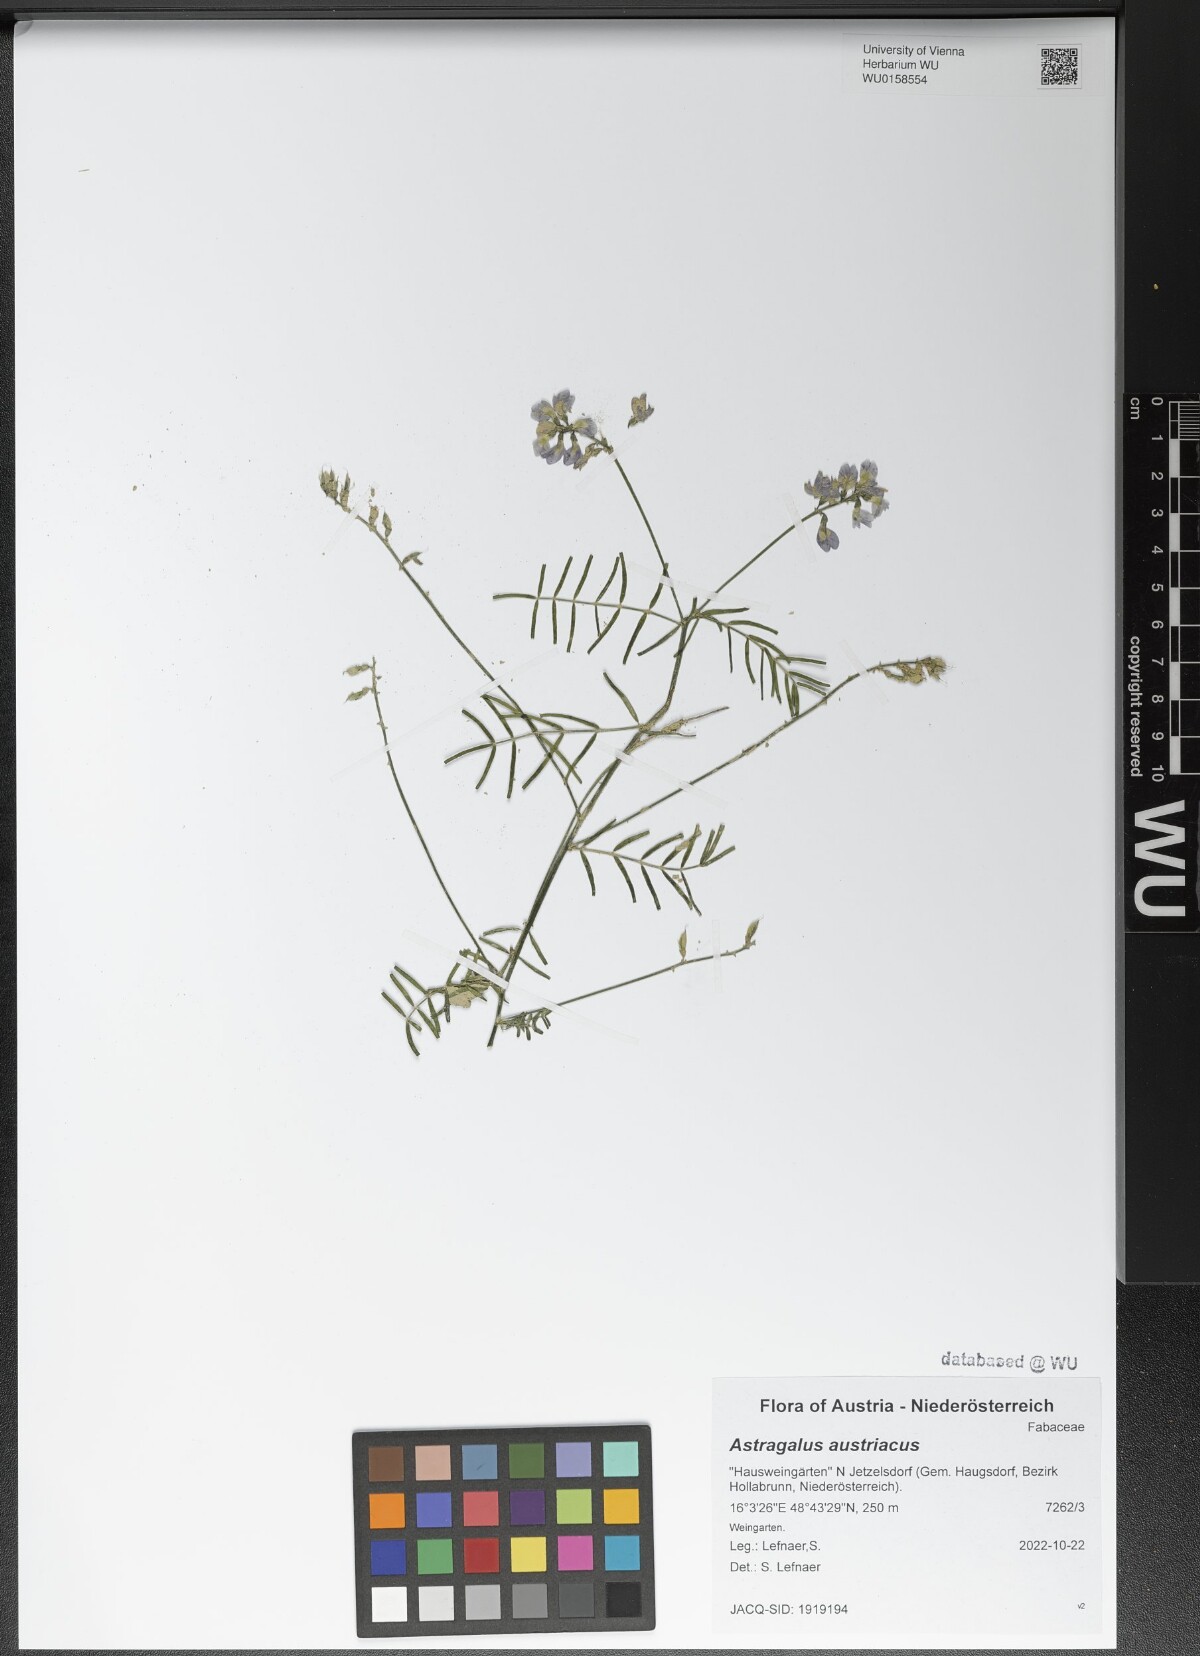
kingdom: Plantae
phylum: Tracheophyta
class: Magnoliopsida
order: Fabales
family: Fabaceae
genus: Astragalus
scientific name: Astragalus austriacus
